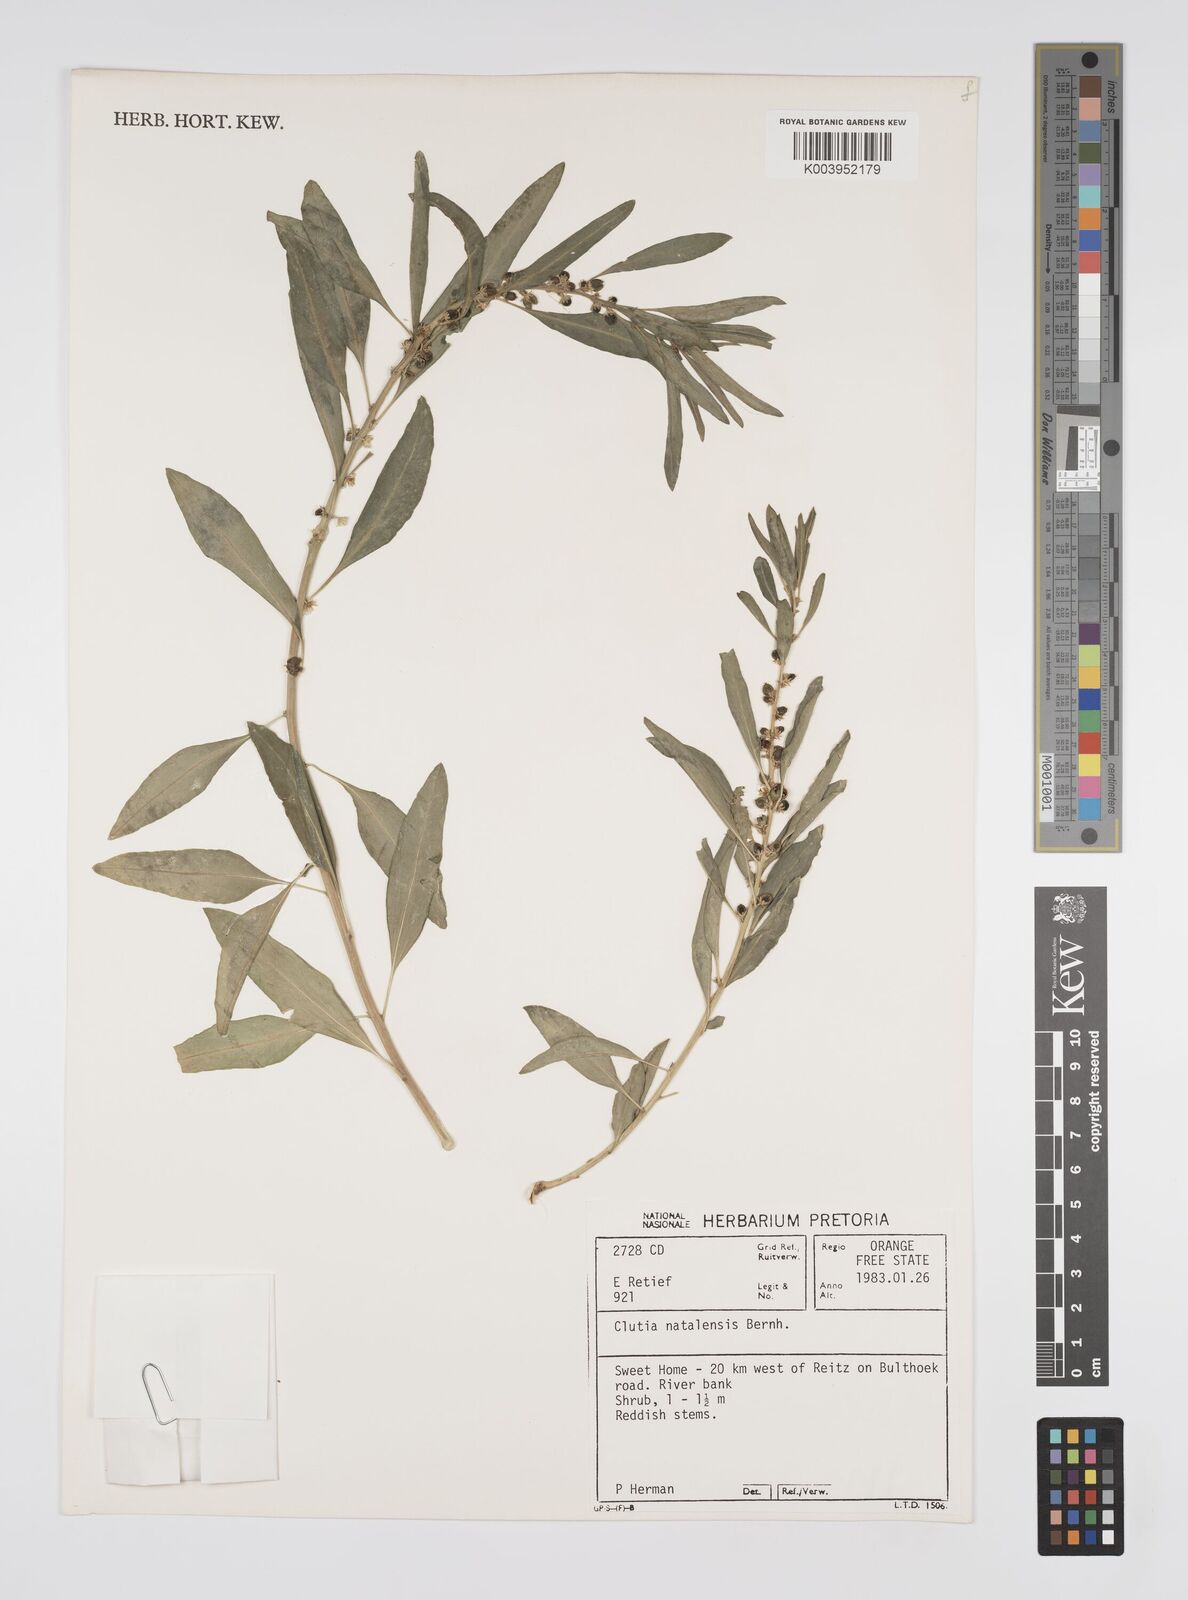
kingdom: Plantae
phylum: Tracheophyta
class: Magnoliopsida
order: Malpighiales
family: Peraceae
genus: Clutia
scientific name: Clutia natalensis
